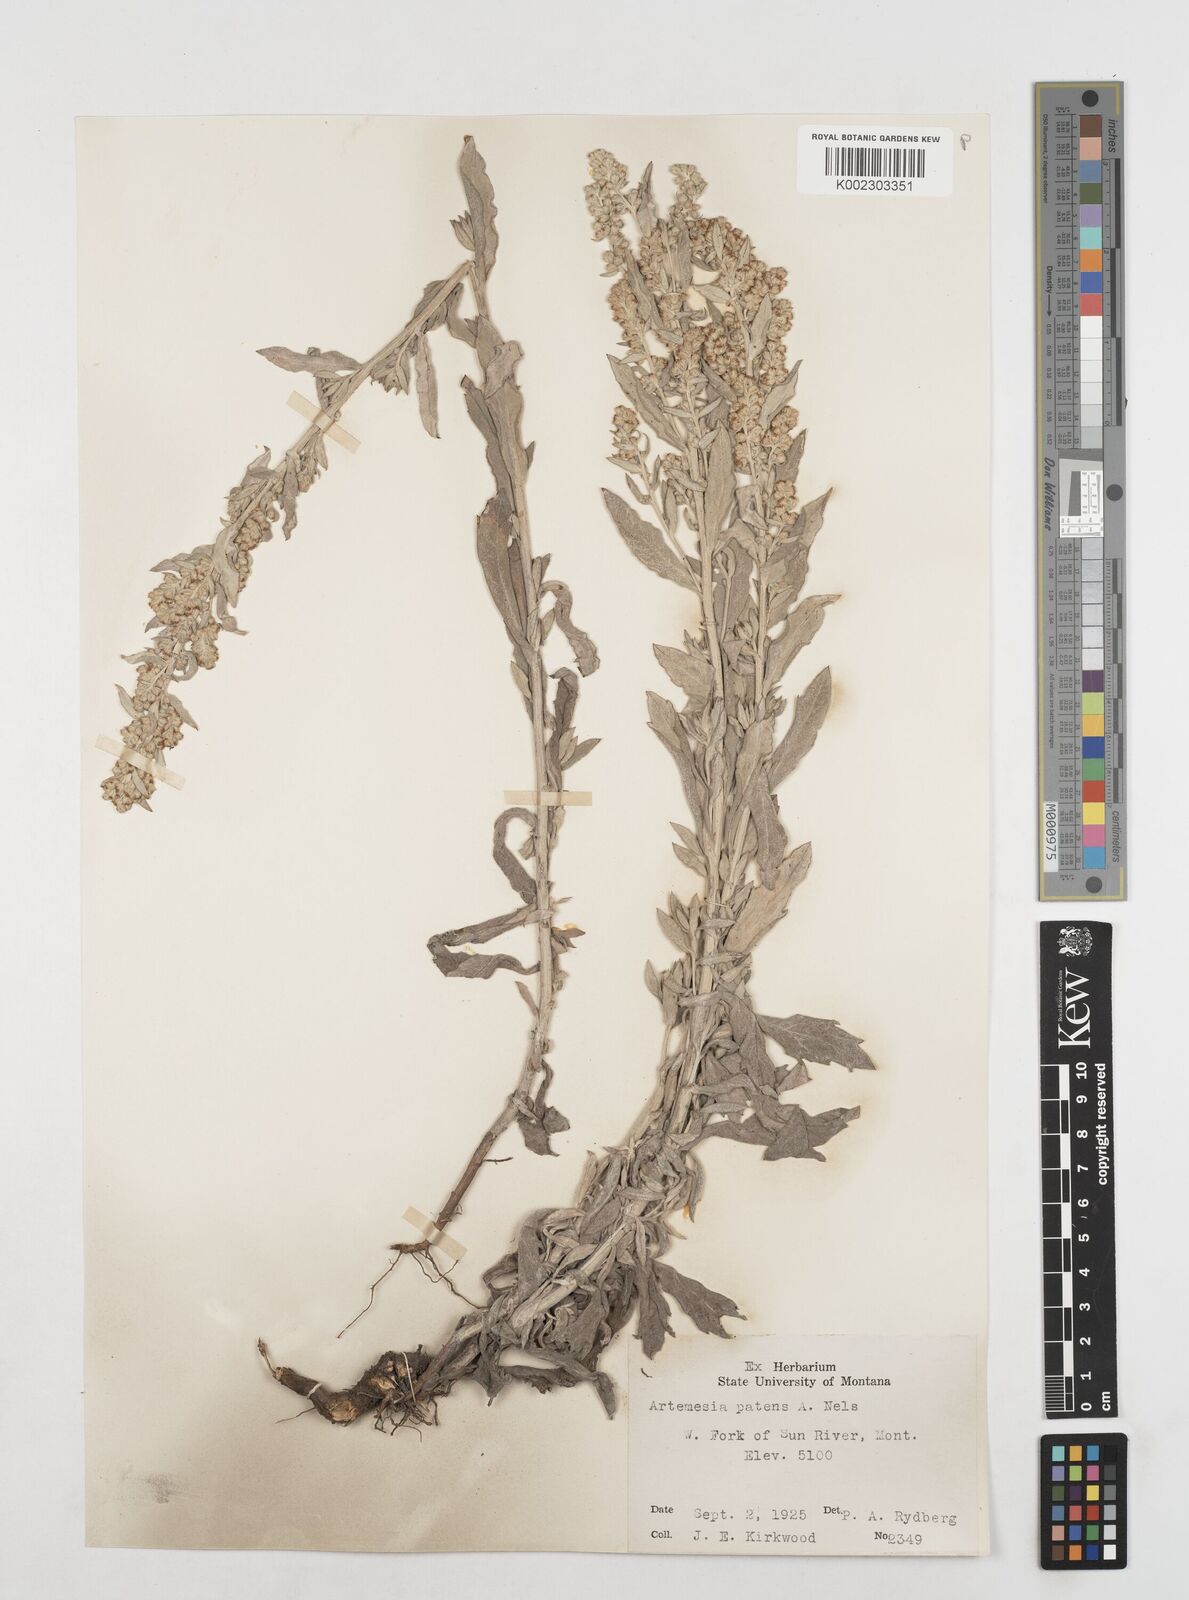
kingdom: Plantae
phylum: Tracheophyta
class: Magnoliopsida
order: Asterales
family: Asteraceae
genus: Artemisia
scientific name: Artemisia
